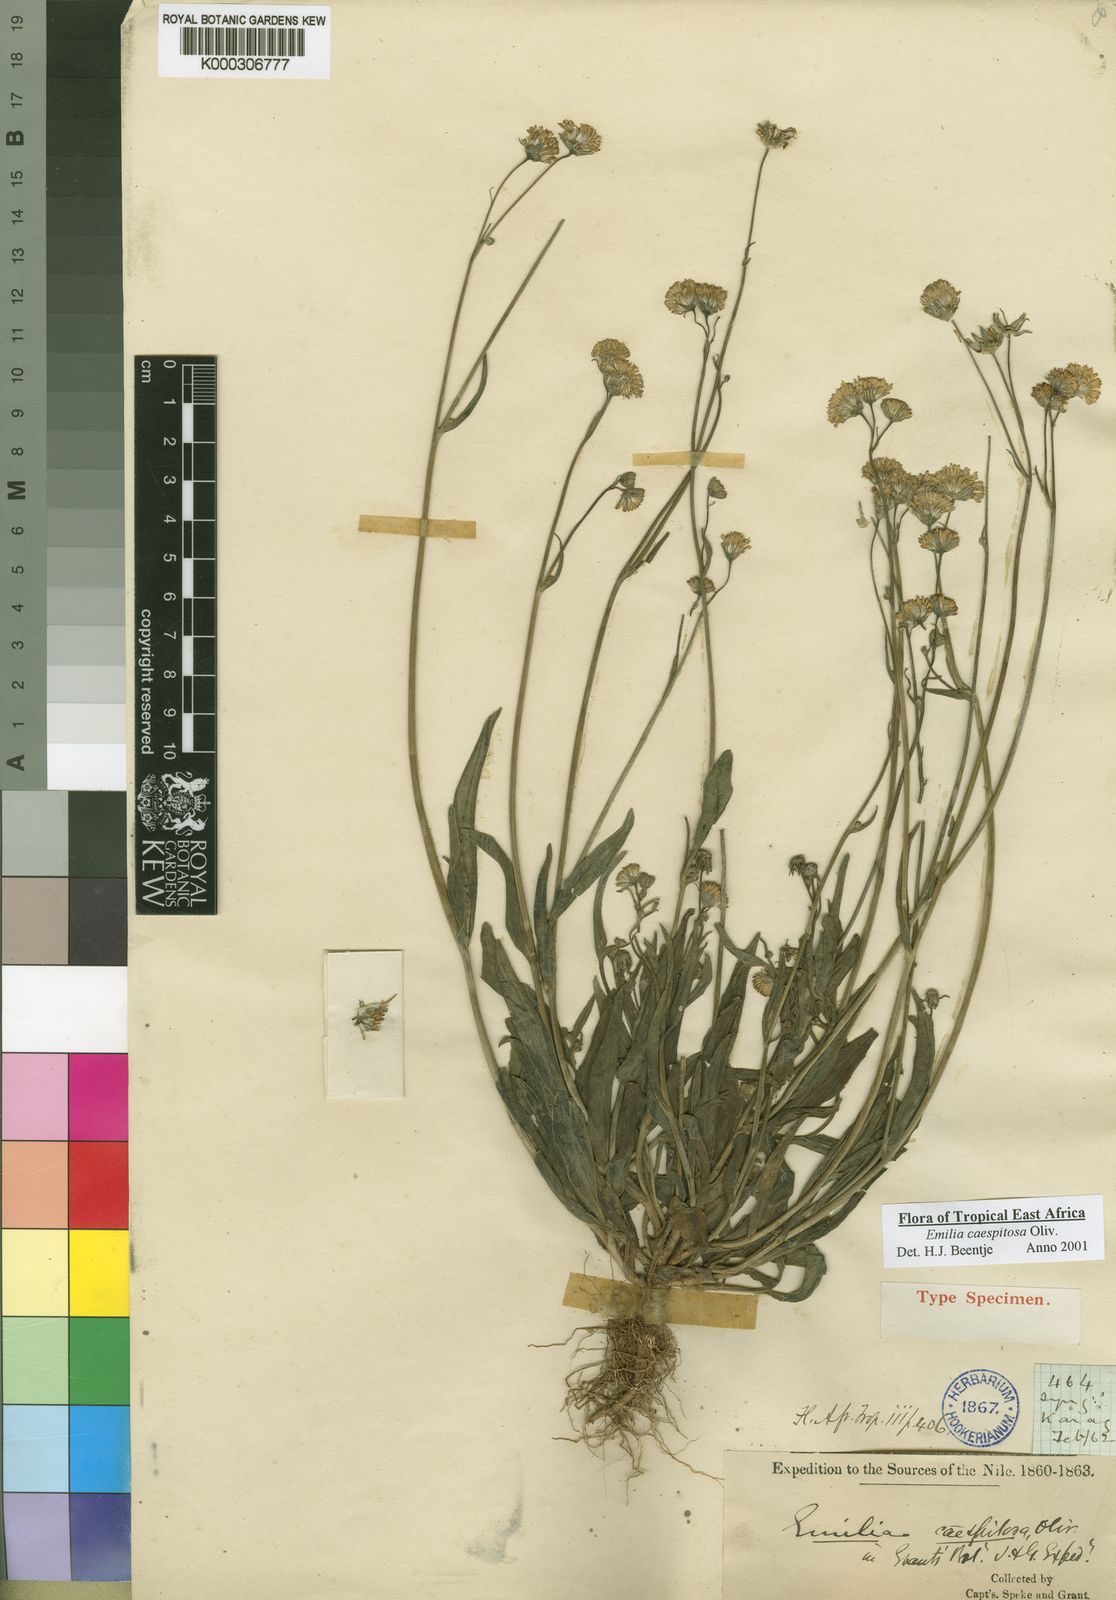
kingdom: Plantae
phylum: Tracheophyta
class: Magnoliopsida
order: Asterales
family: Asteraceae
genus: Emilia
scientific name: Emilia coccinea
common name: Scarlet tasselflower
